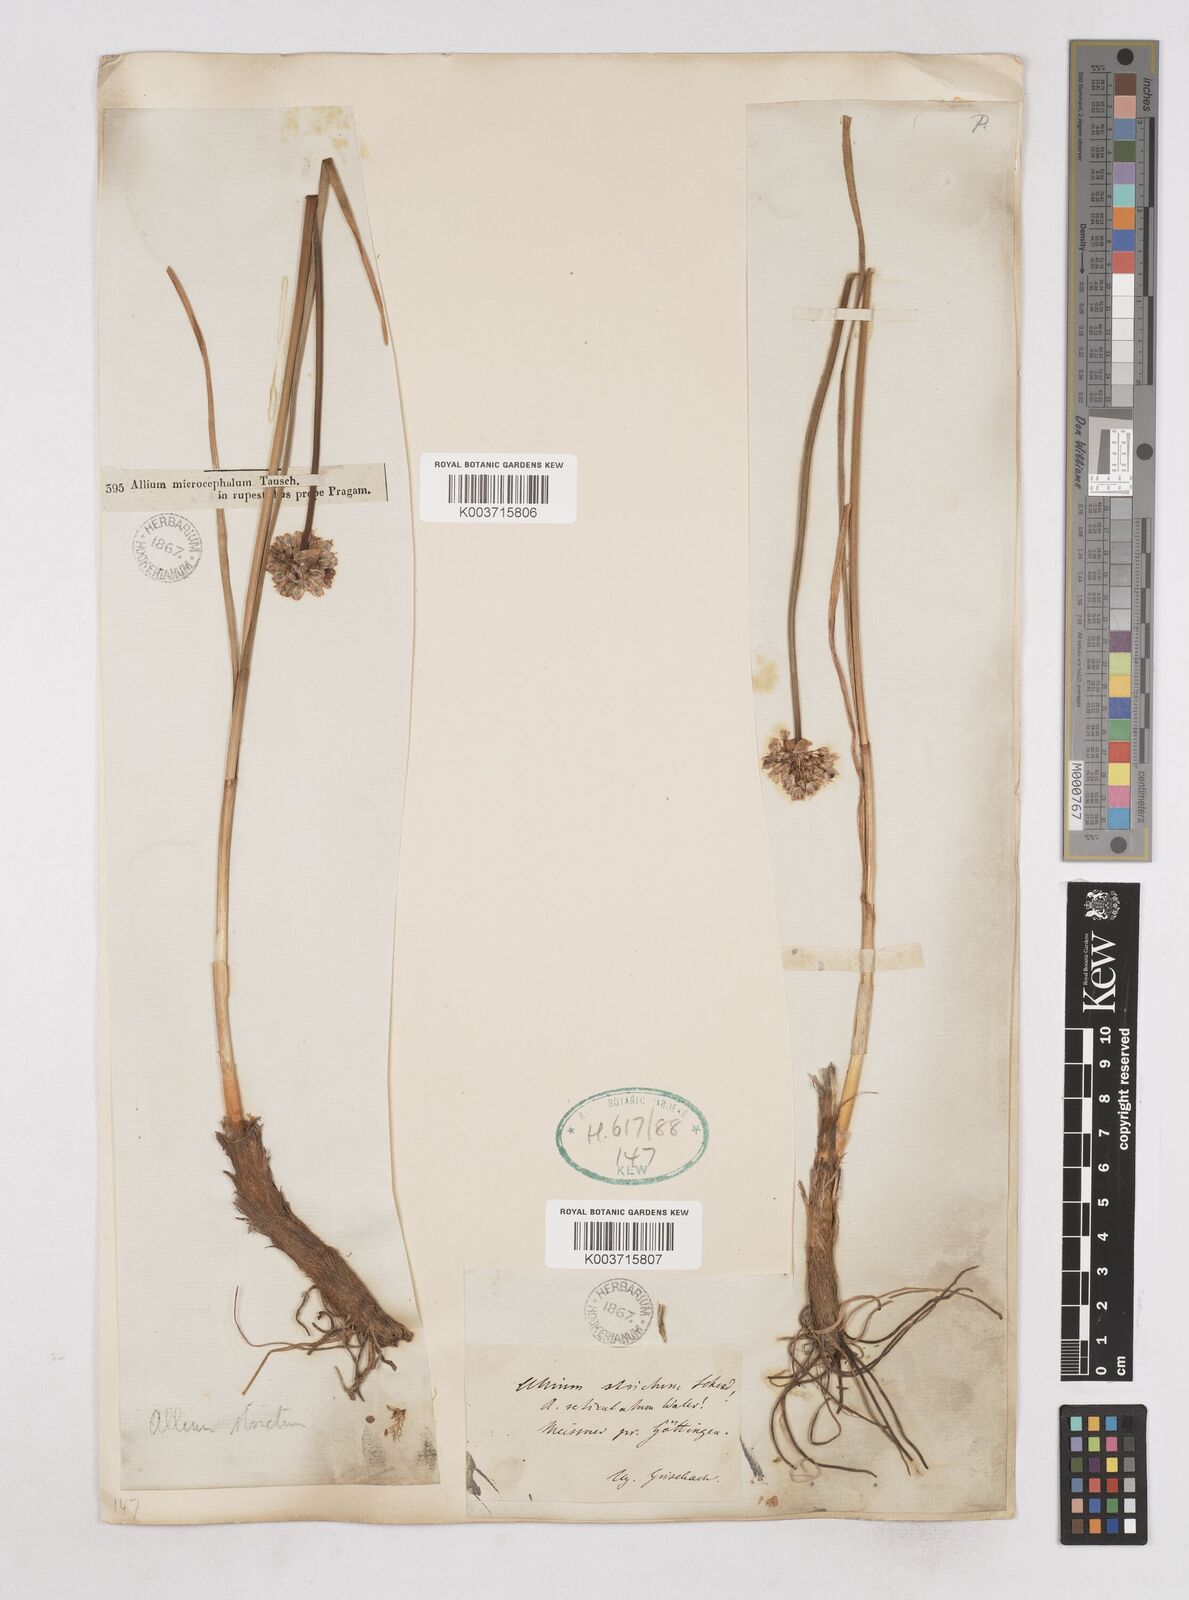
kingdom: Plantae
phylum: Tracheophyta
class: Liliopsida
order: Asparagales
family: Amaryllidaceae
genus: Allium
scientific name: Allium strictum
